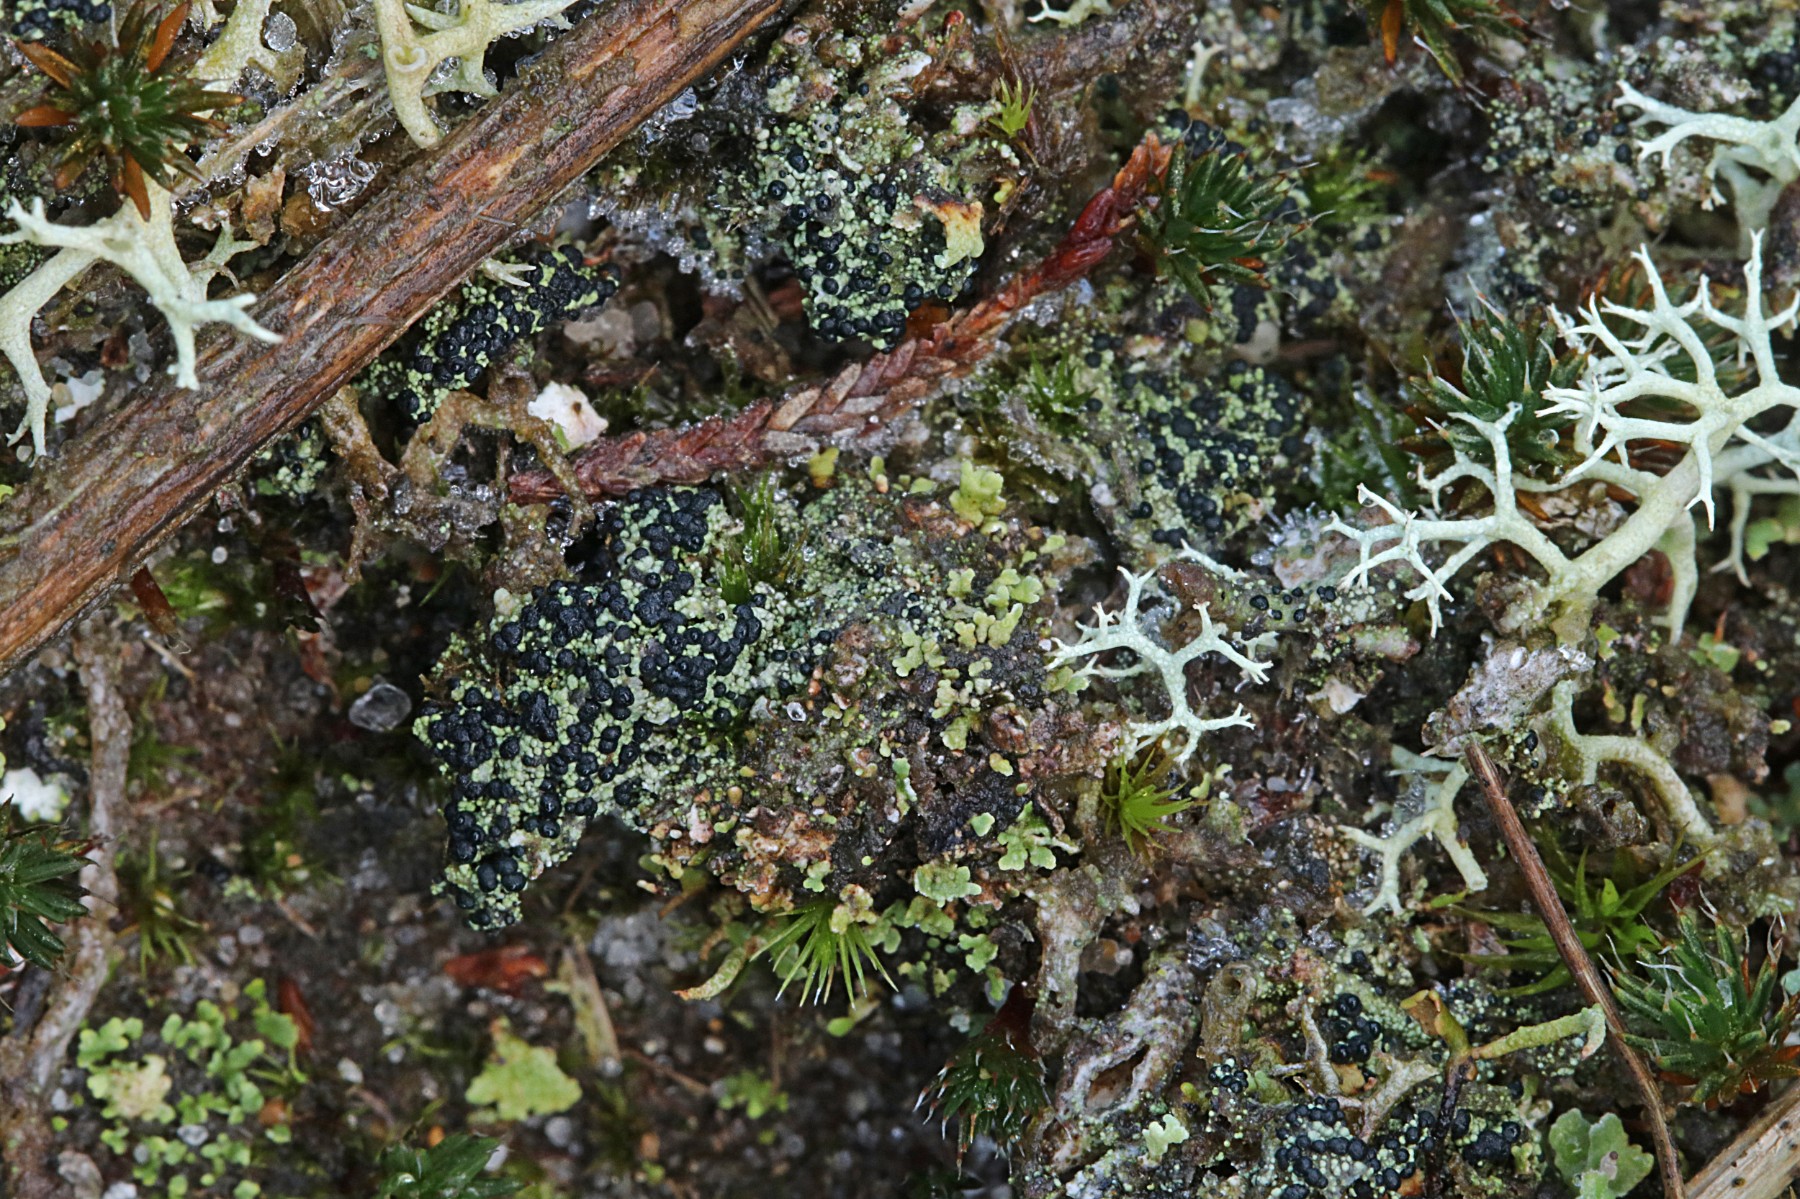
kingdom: Fungi
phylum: Ascomycota
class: Lecanoromycetes
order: Lecanorales
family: Byssolomataceae
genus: Micarea
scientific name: Micarea lignaria
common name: tørve-knaplav
